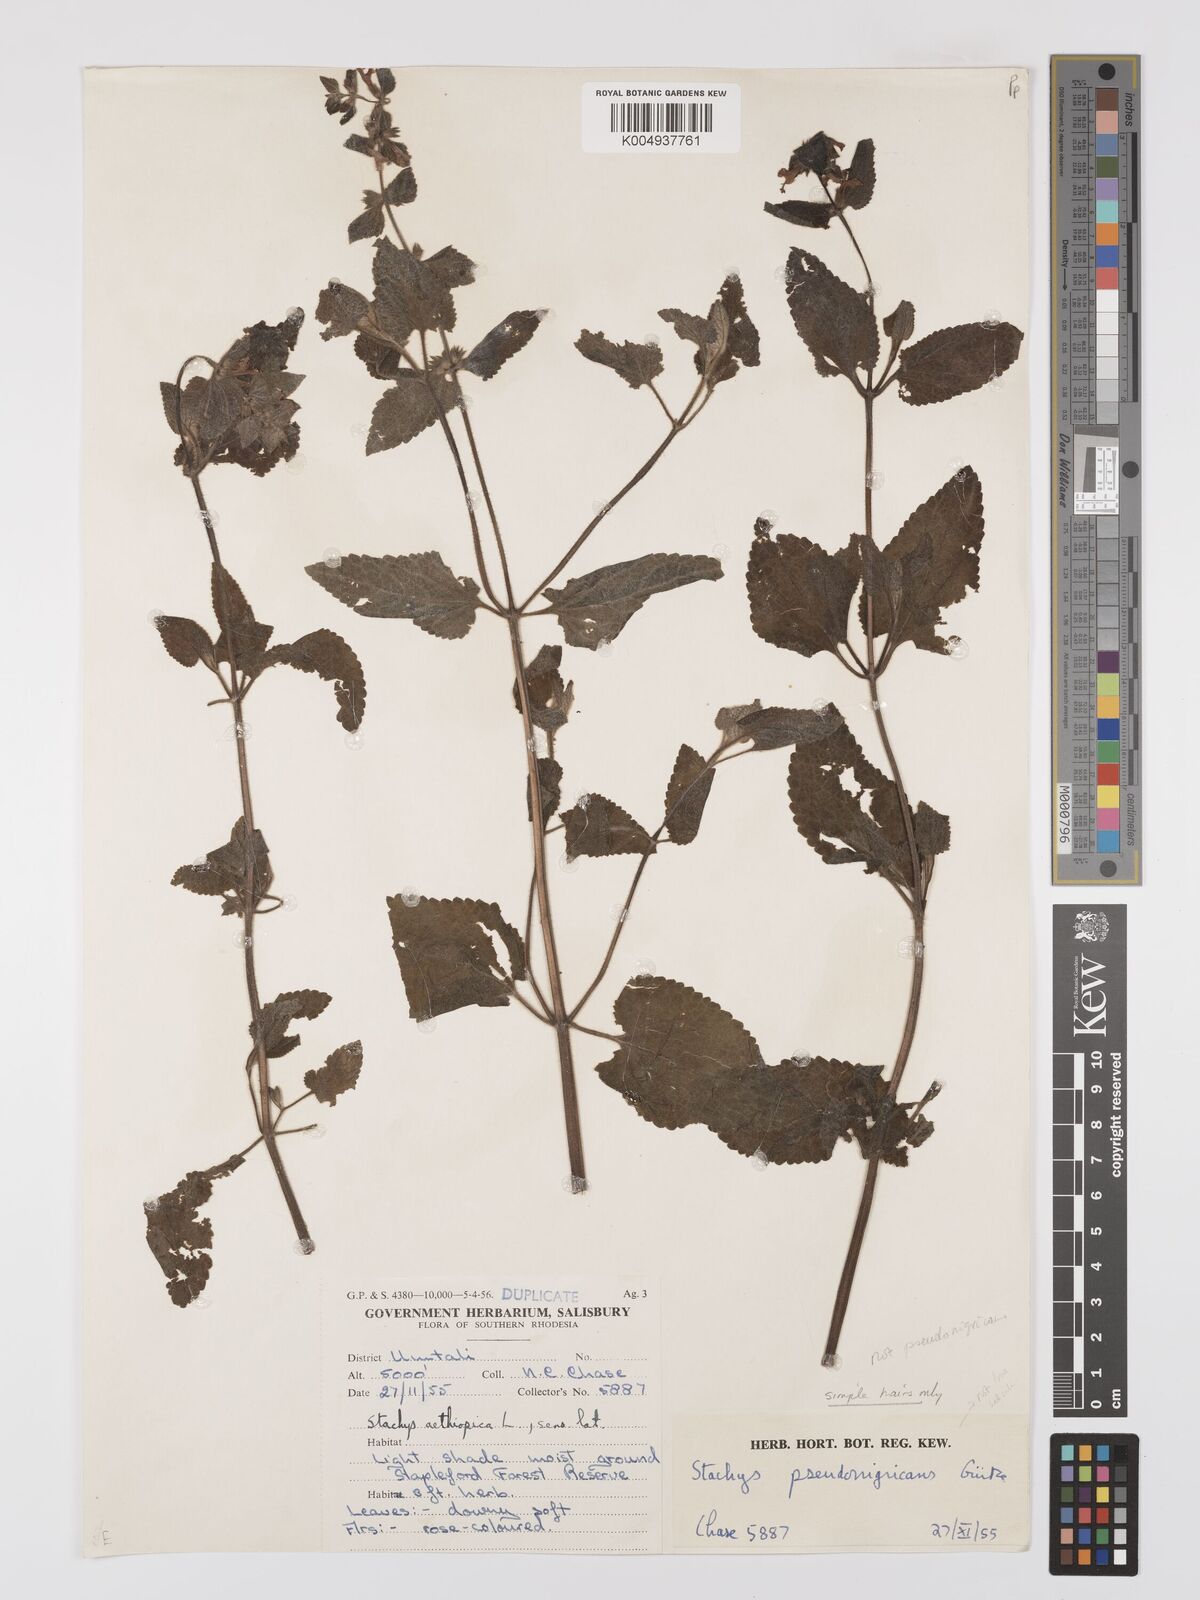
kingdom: Plantae
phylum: Tracheophyta
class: Magnoliopsida
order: Lamiales
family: Lamiaceae
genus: Stachys
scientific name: Stachys aethiopica
